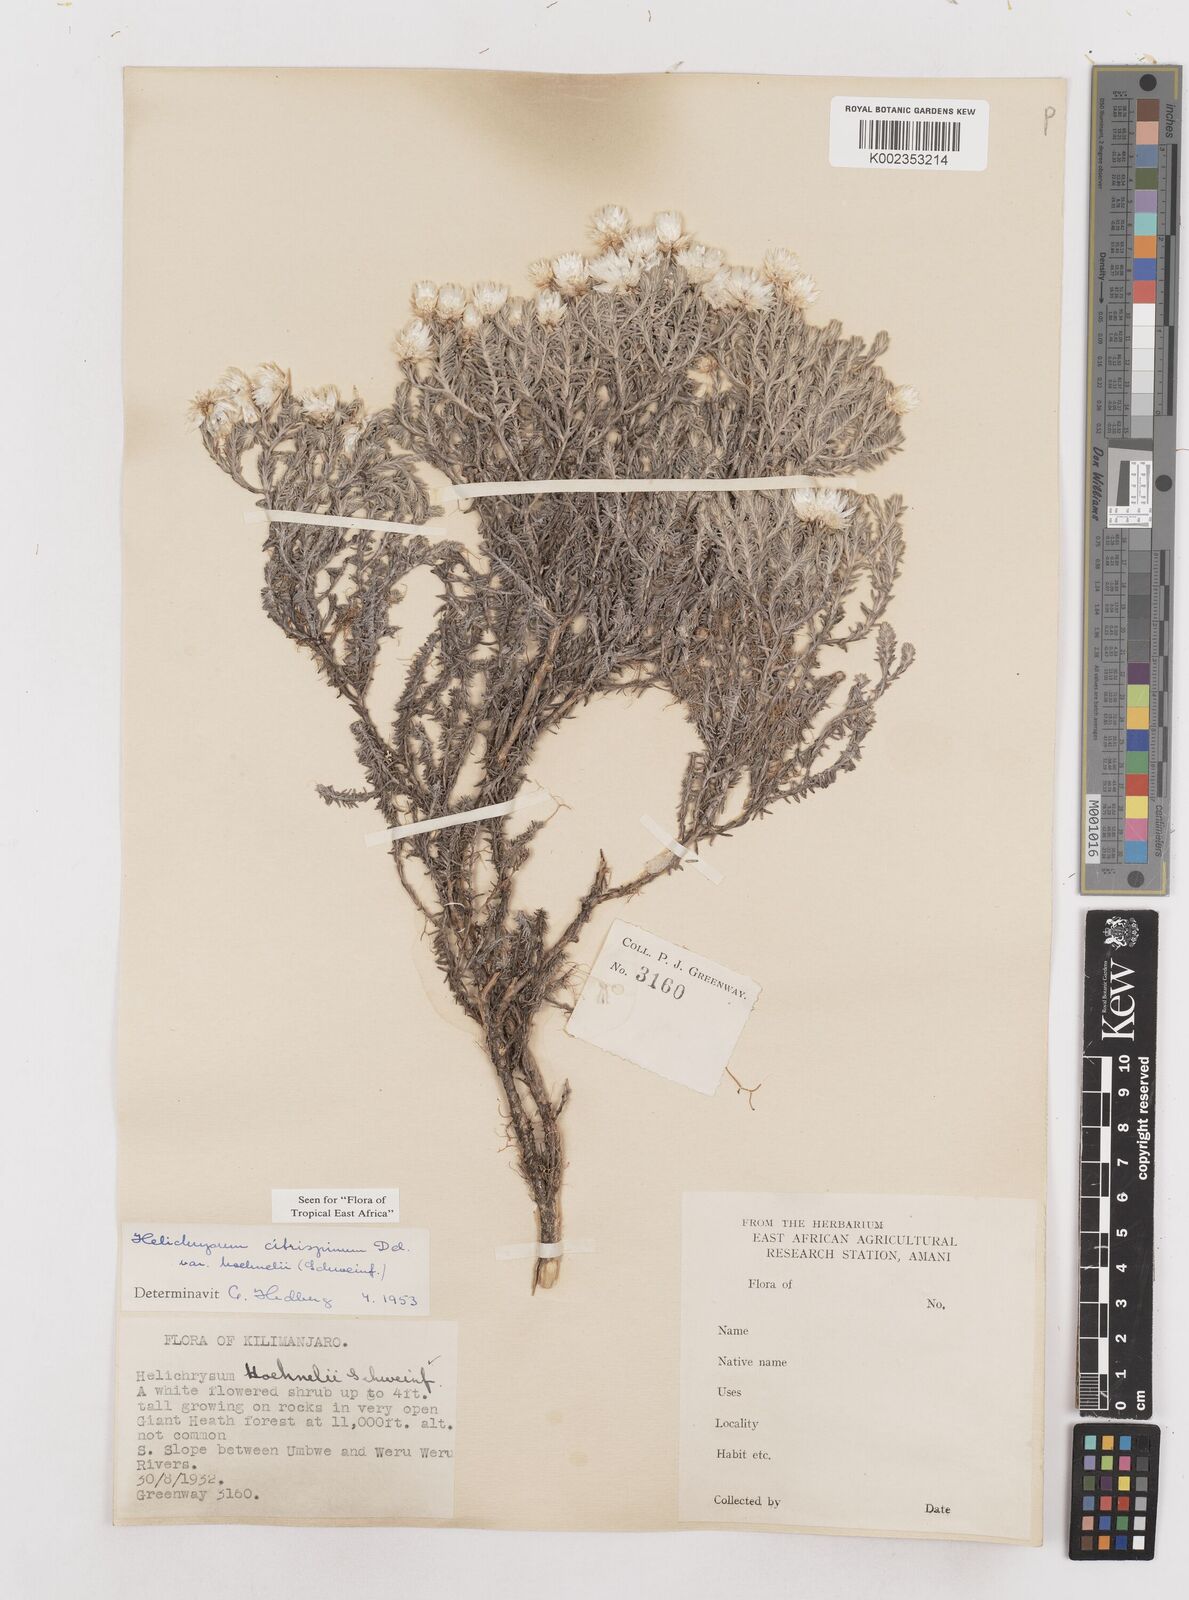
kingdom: Plantae
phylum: Tracheophyta
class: Magnoliopsida
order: Asterales
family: Asteraceae
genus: Helichrysum
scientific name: Helichrysum citrispinum
